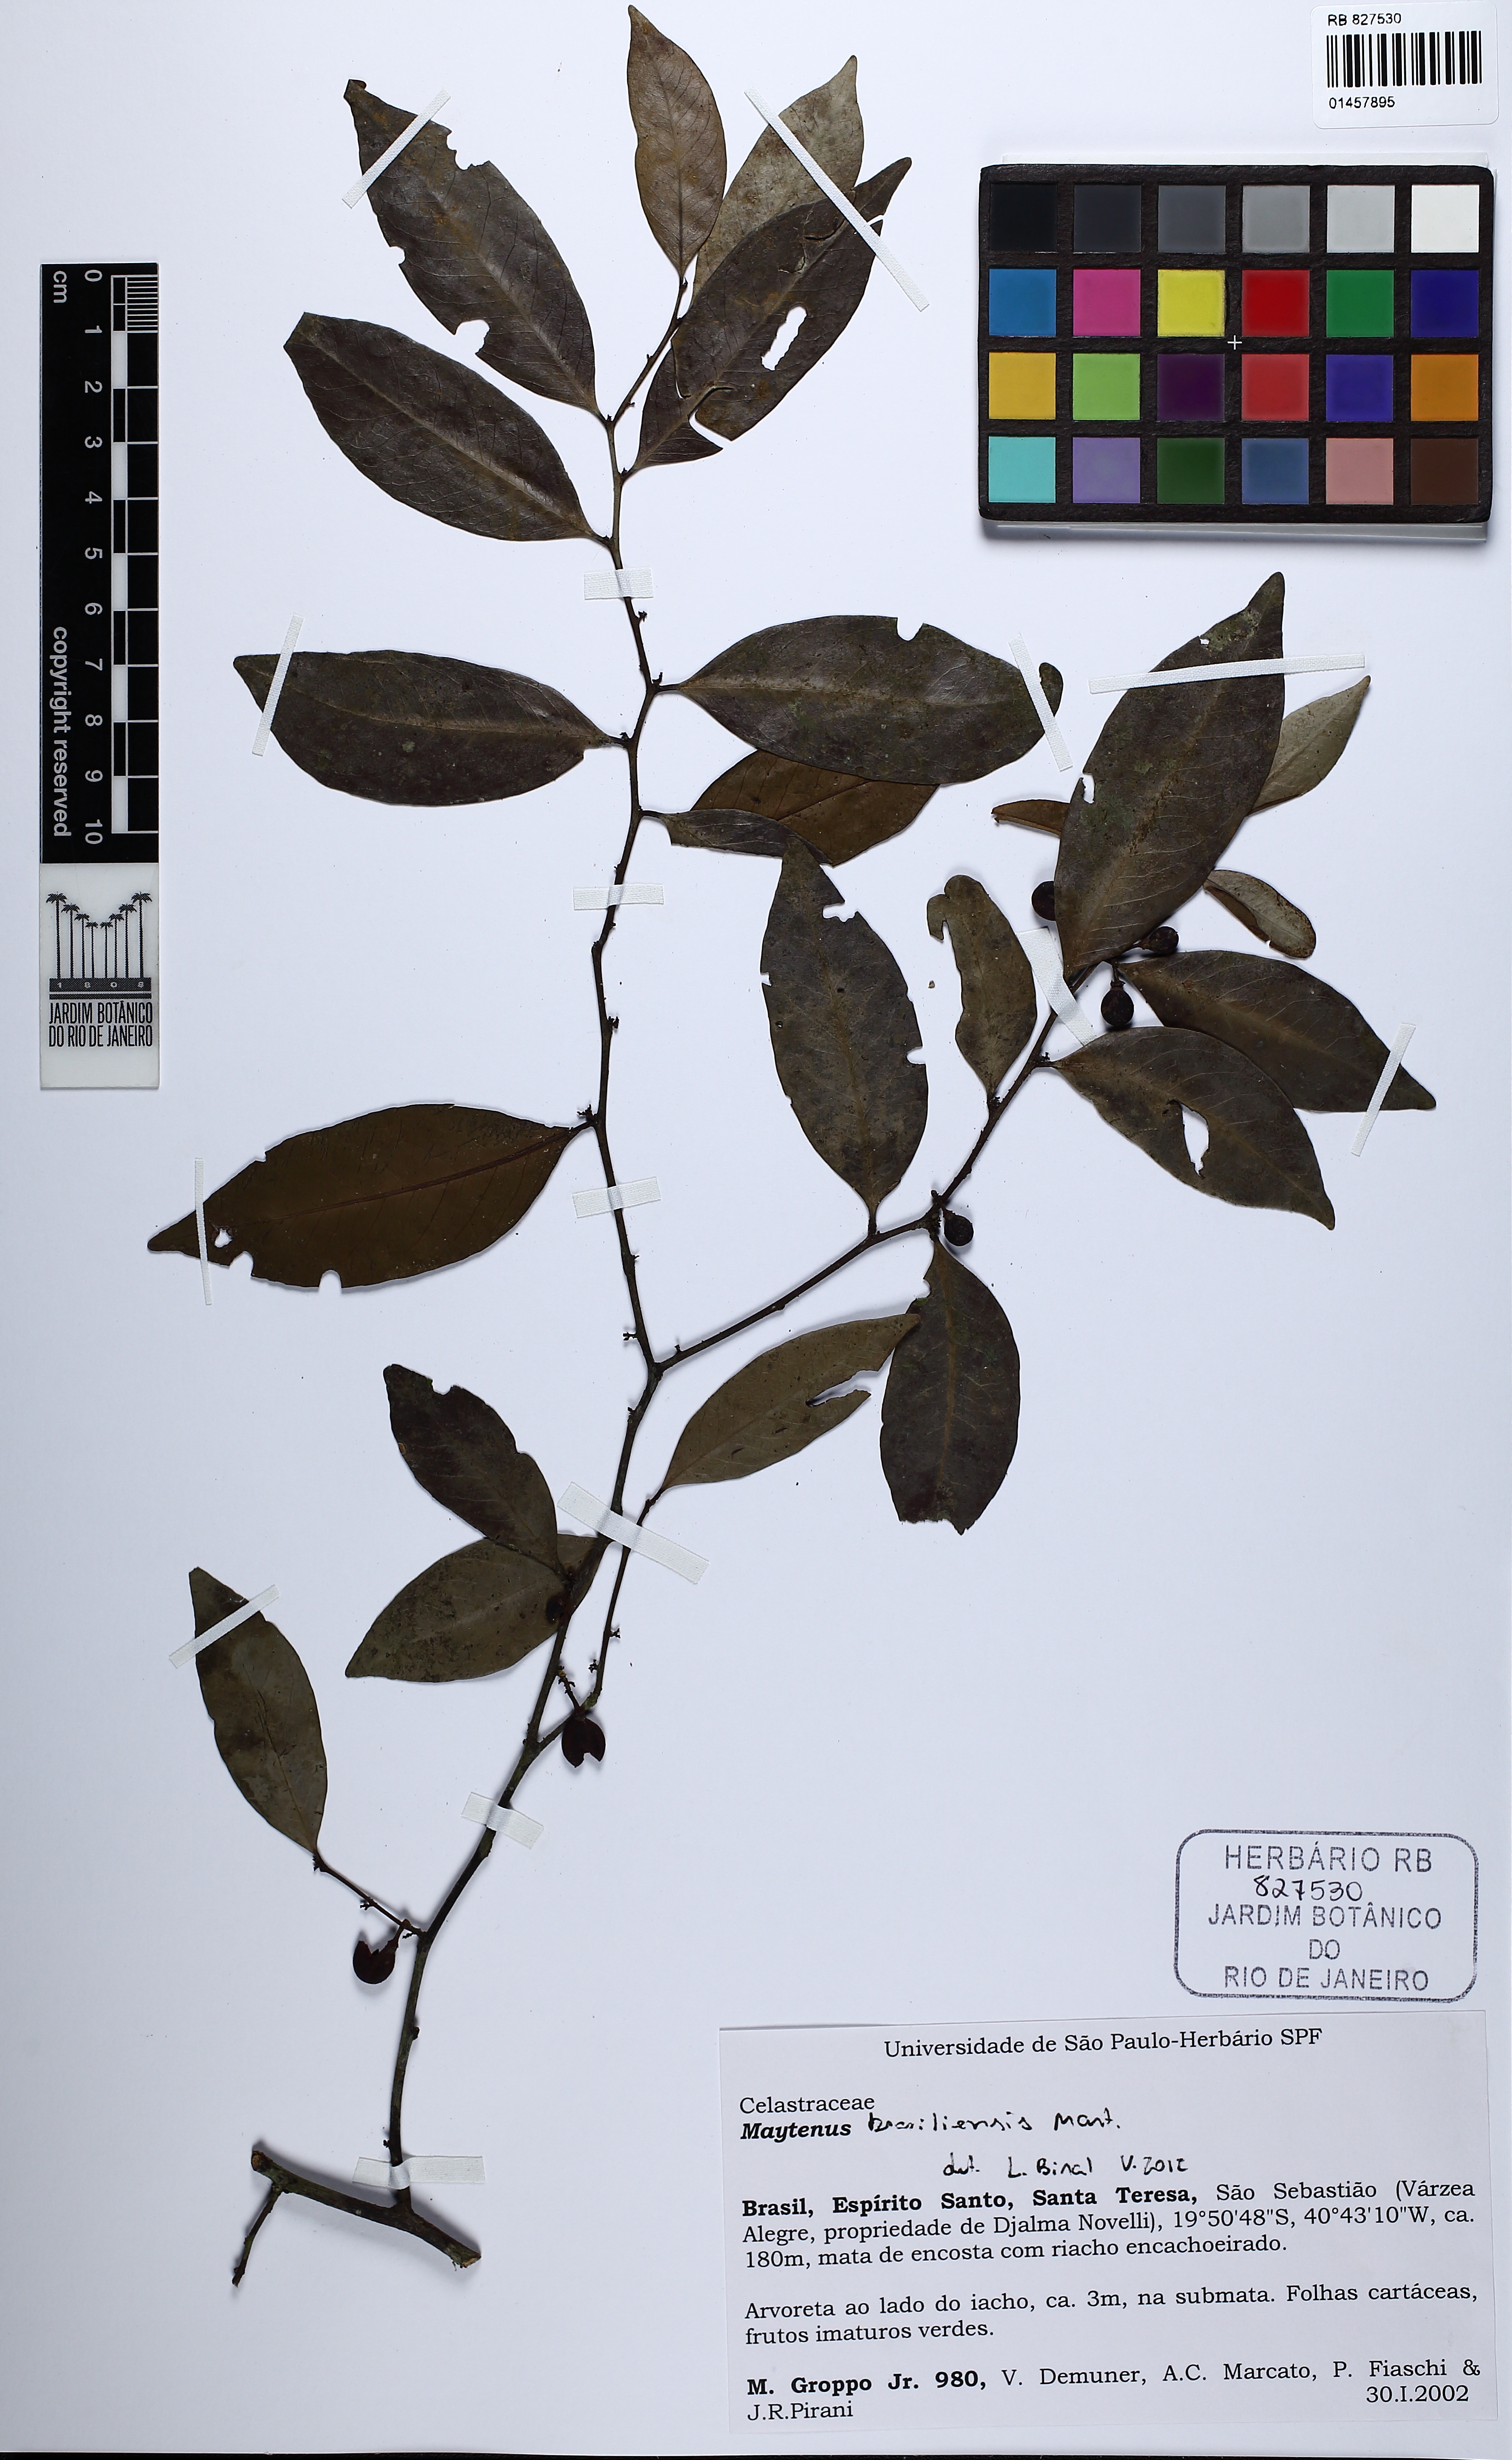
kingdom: Plantae
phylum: Tracheophyta
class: Magnoliopsida
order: Celastrales
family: Celastraceae
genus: Monteverdia
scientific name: Monteverdia brasiliensis
